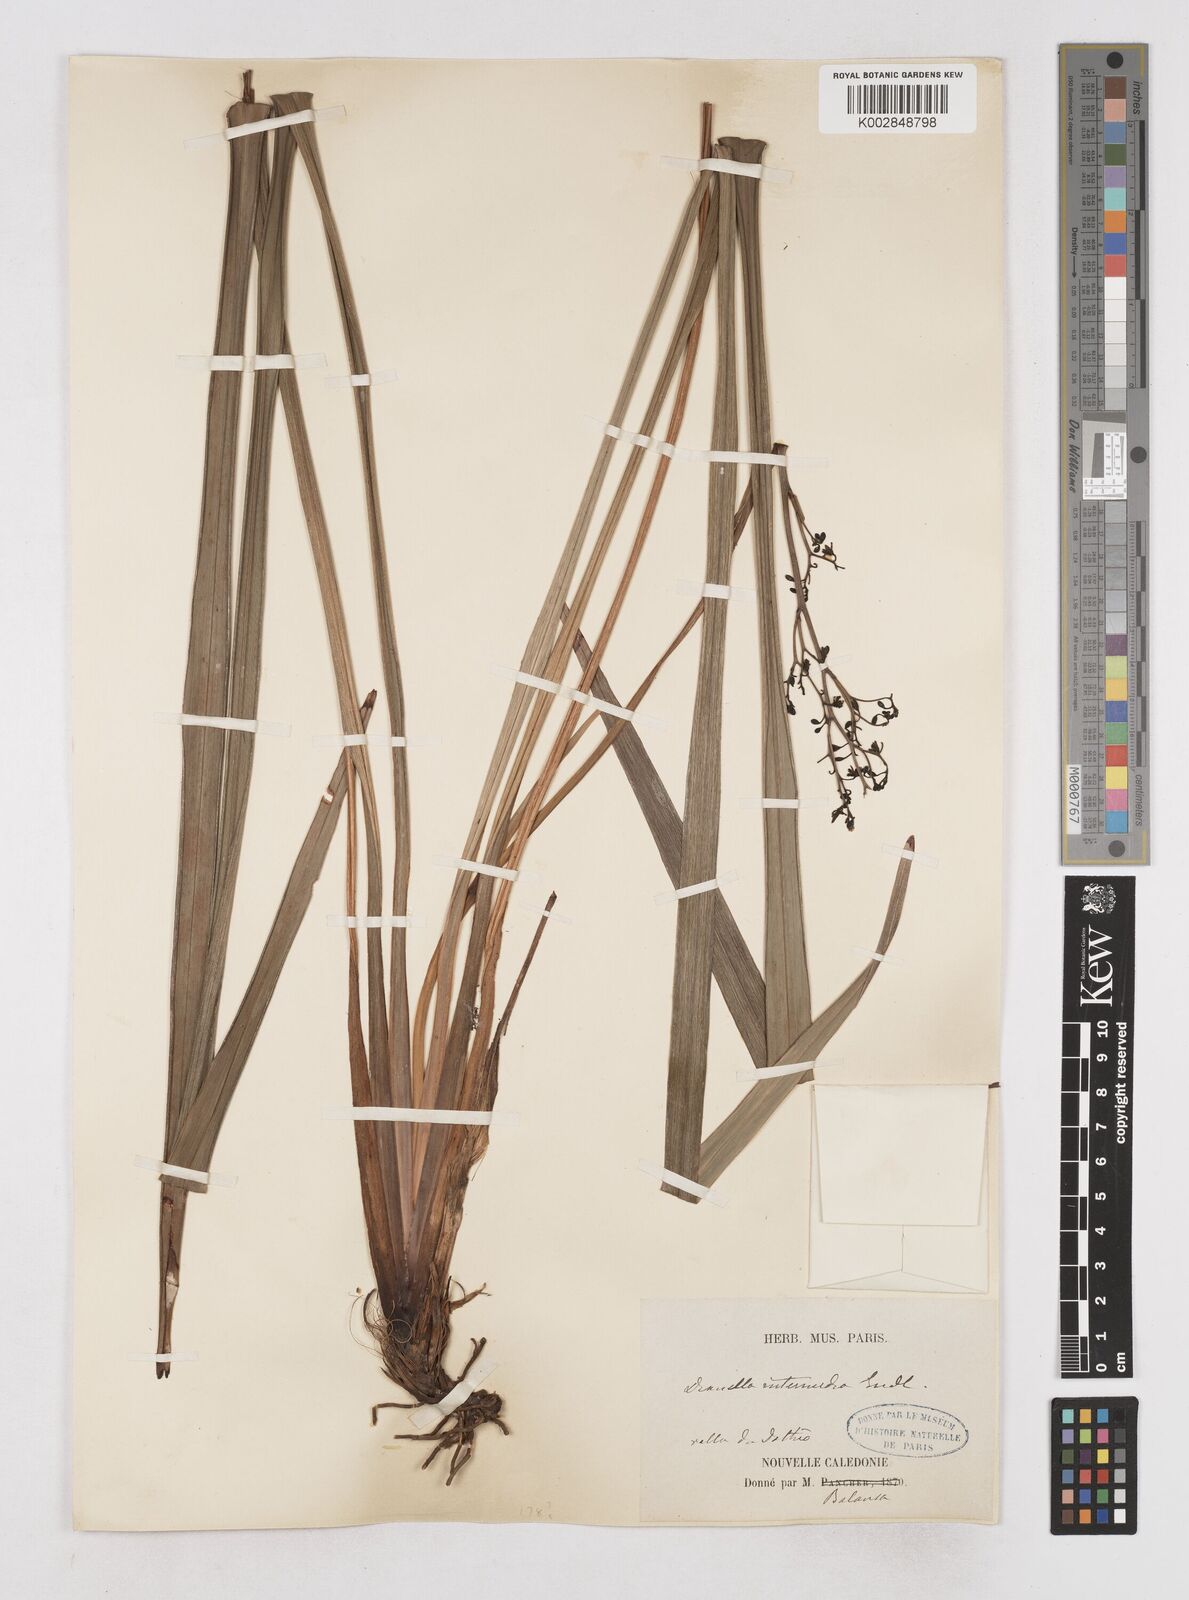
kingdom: Plantae
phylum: Tracheophyta
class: Liliopsida
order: Asparagales
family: Asphodelaceae
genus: Dianella
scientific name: Dianella adenanthera
